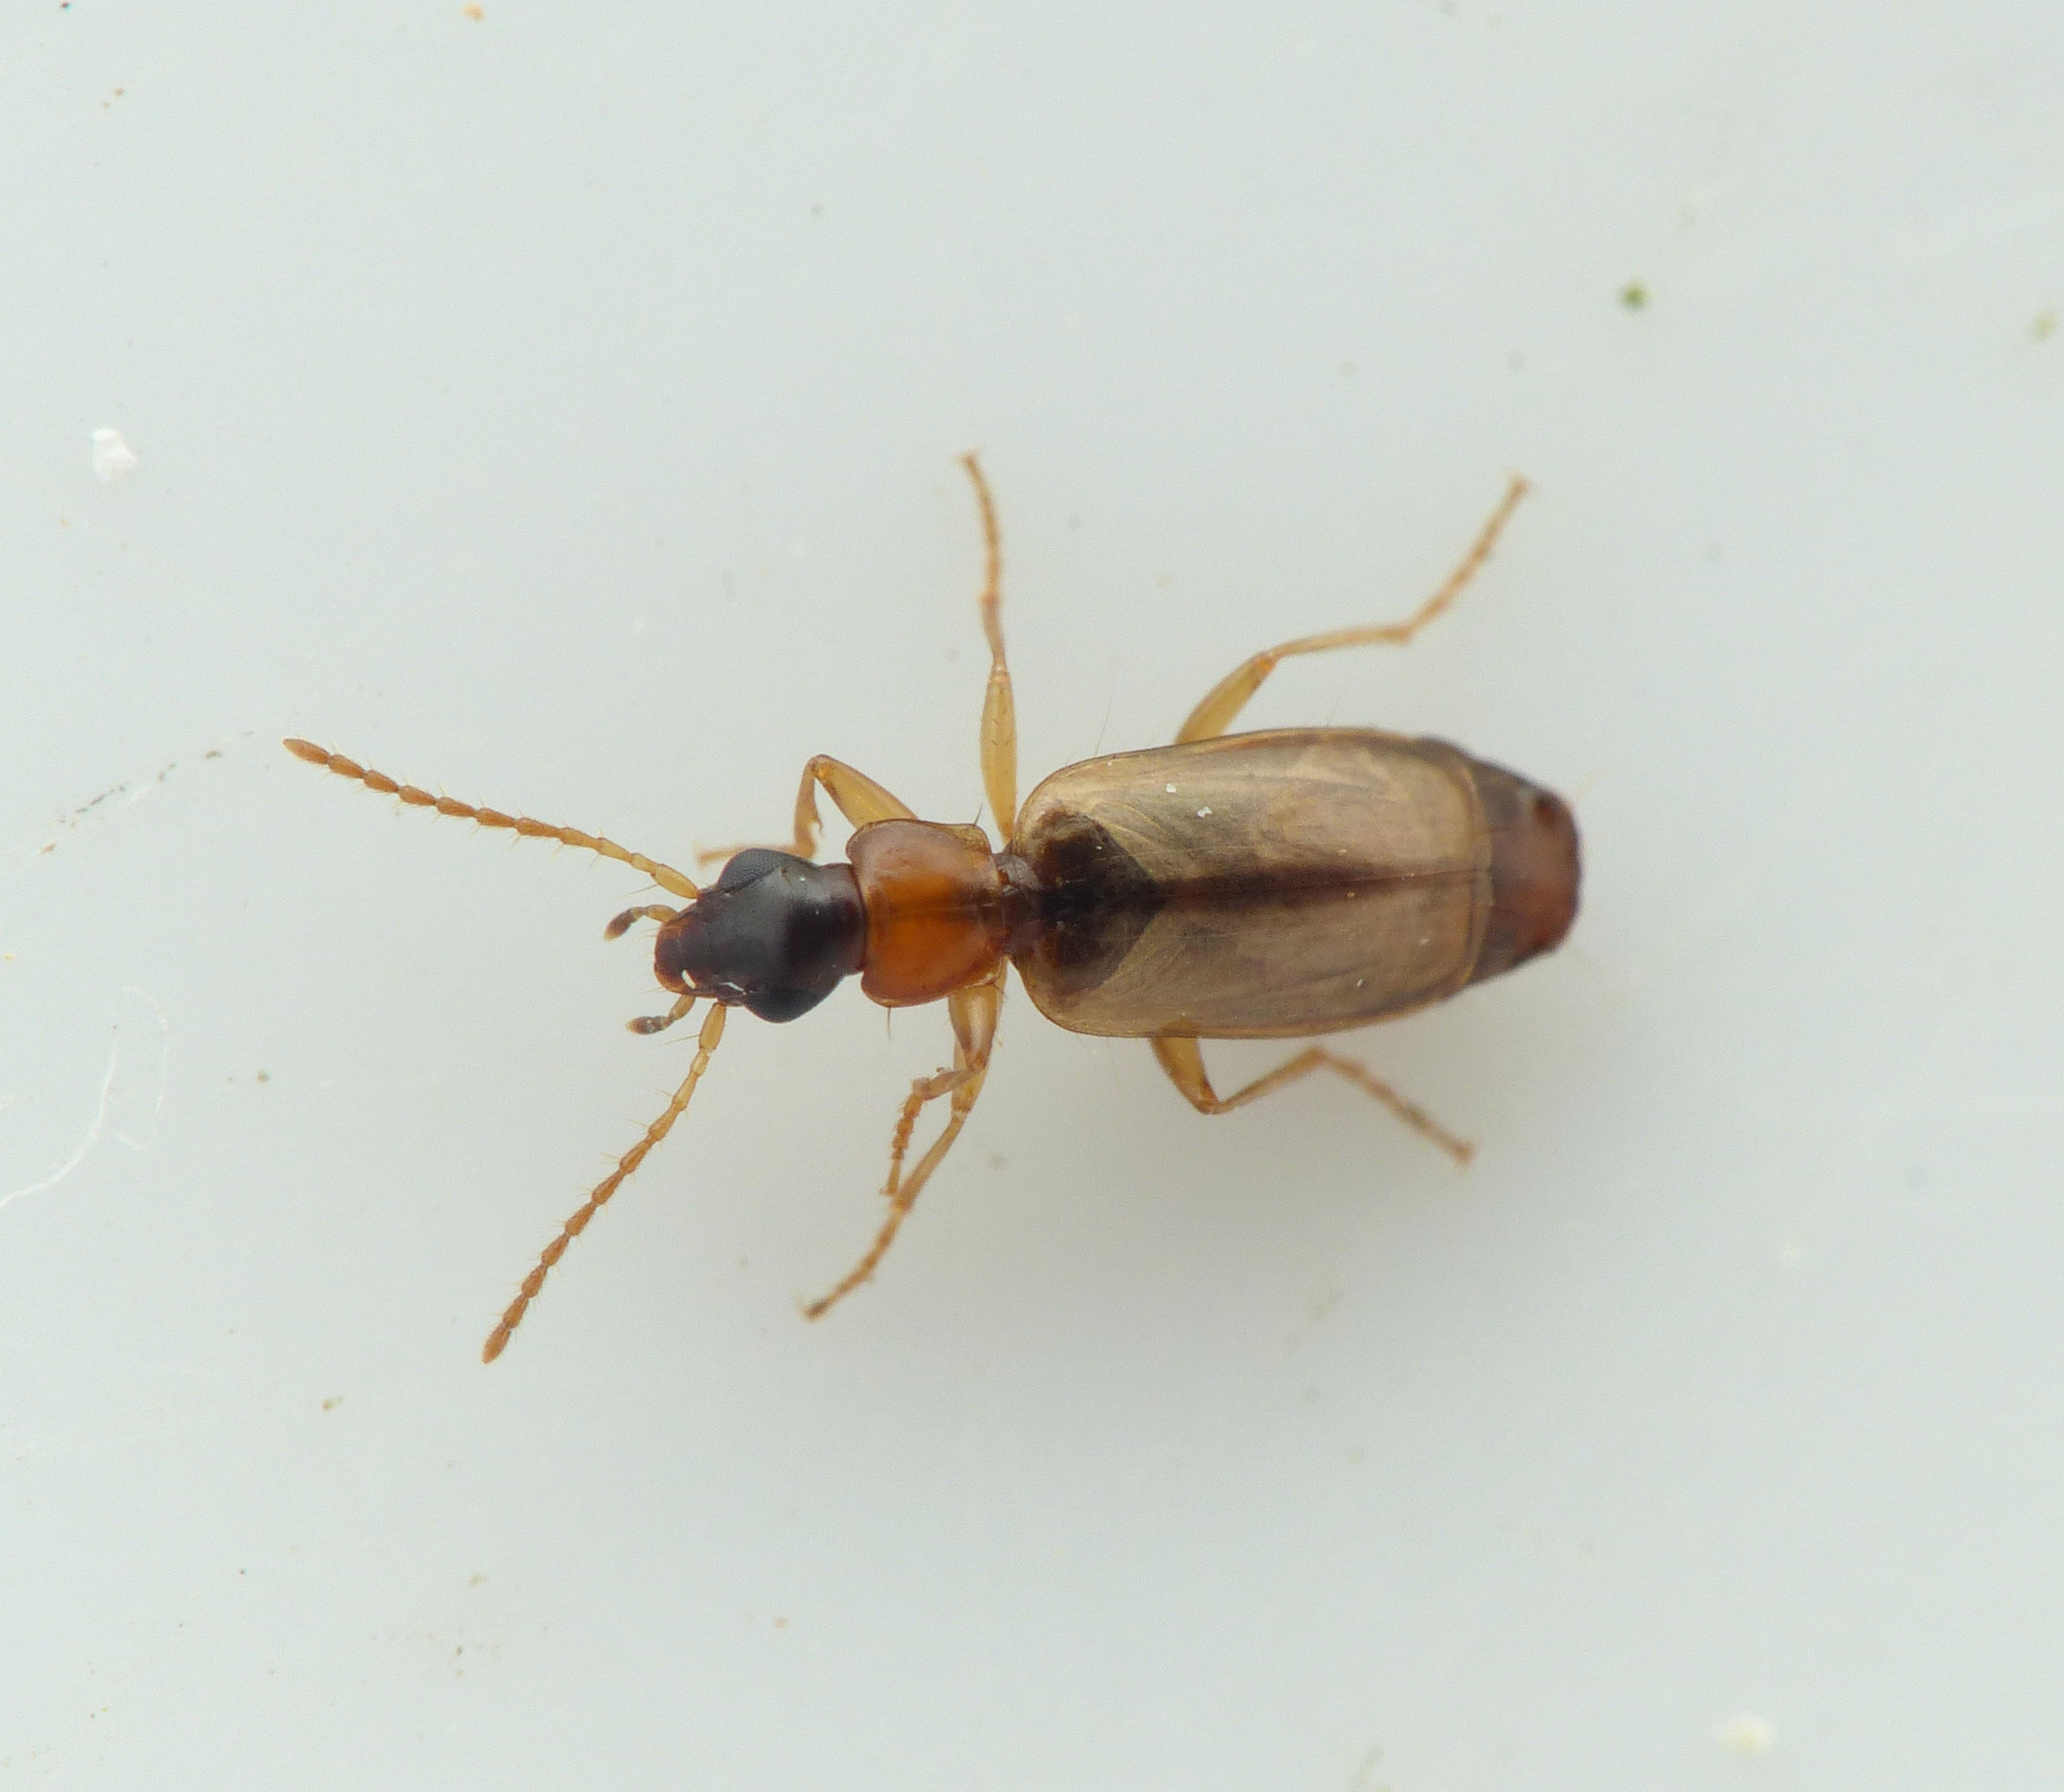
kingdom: Animalia
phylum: Arthropoda
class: Insecta
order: Coleoptera
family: Carabidae
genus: Philorhizus
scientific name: Philorhizus melanocephalus
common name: Bleggul sivløber
